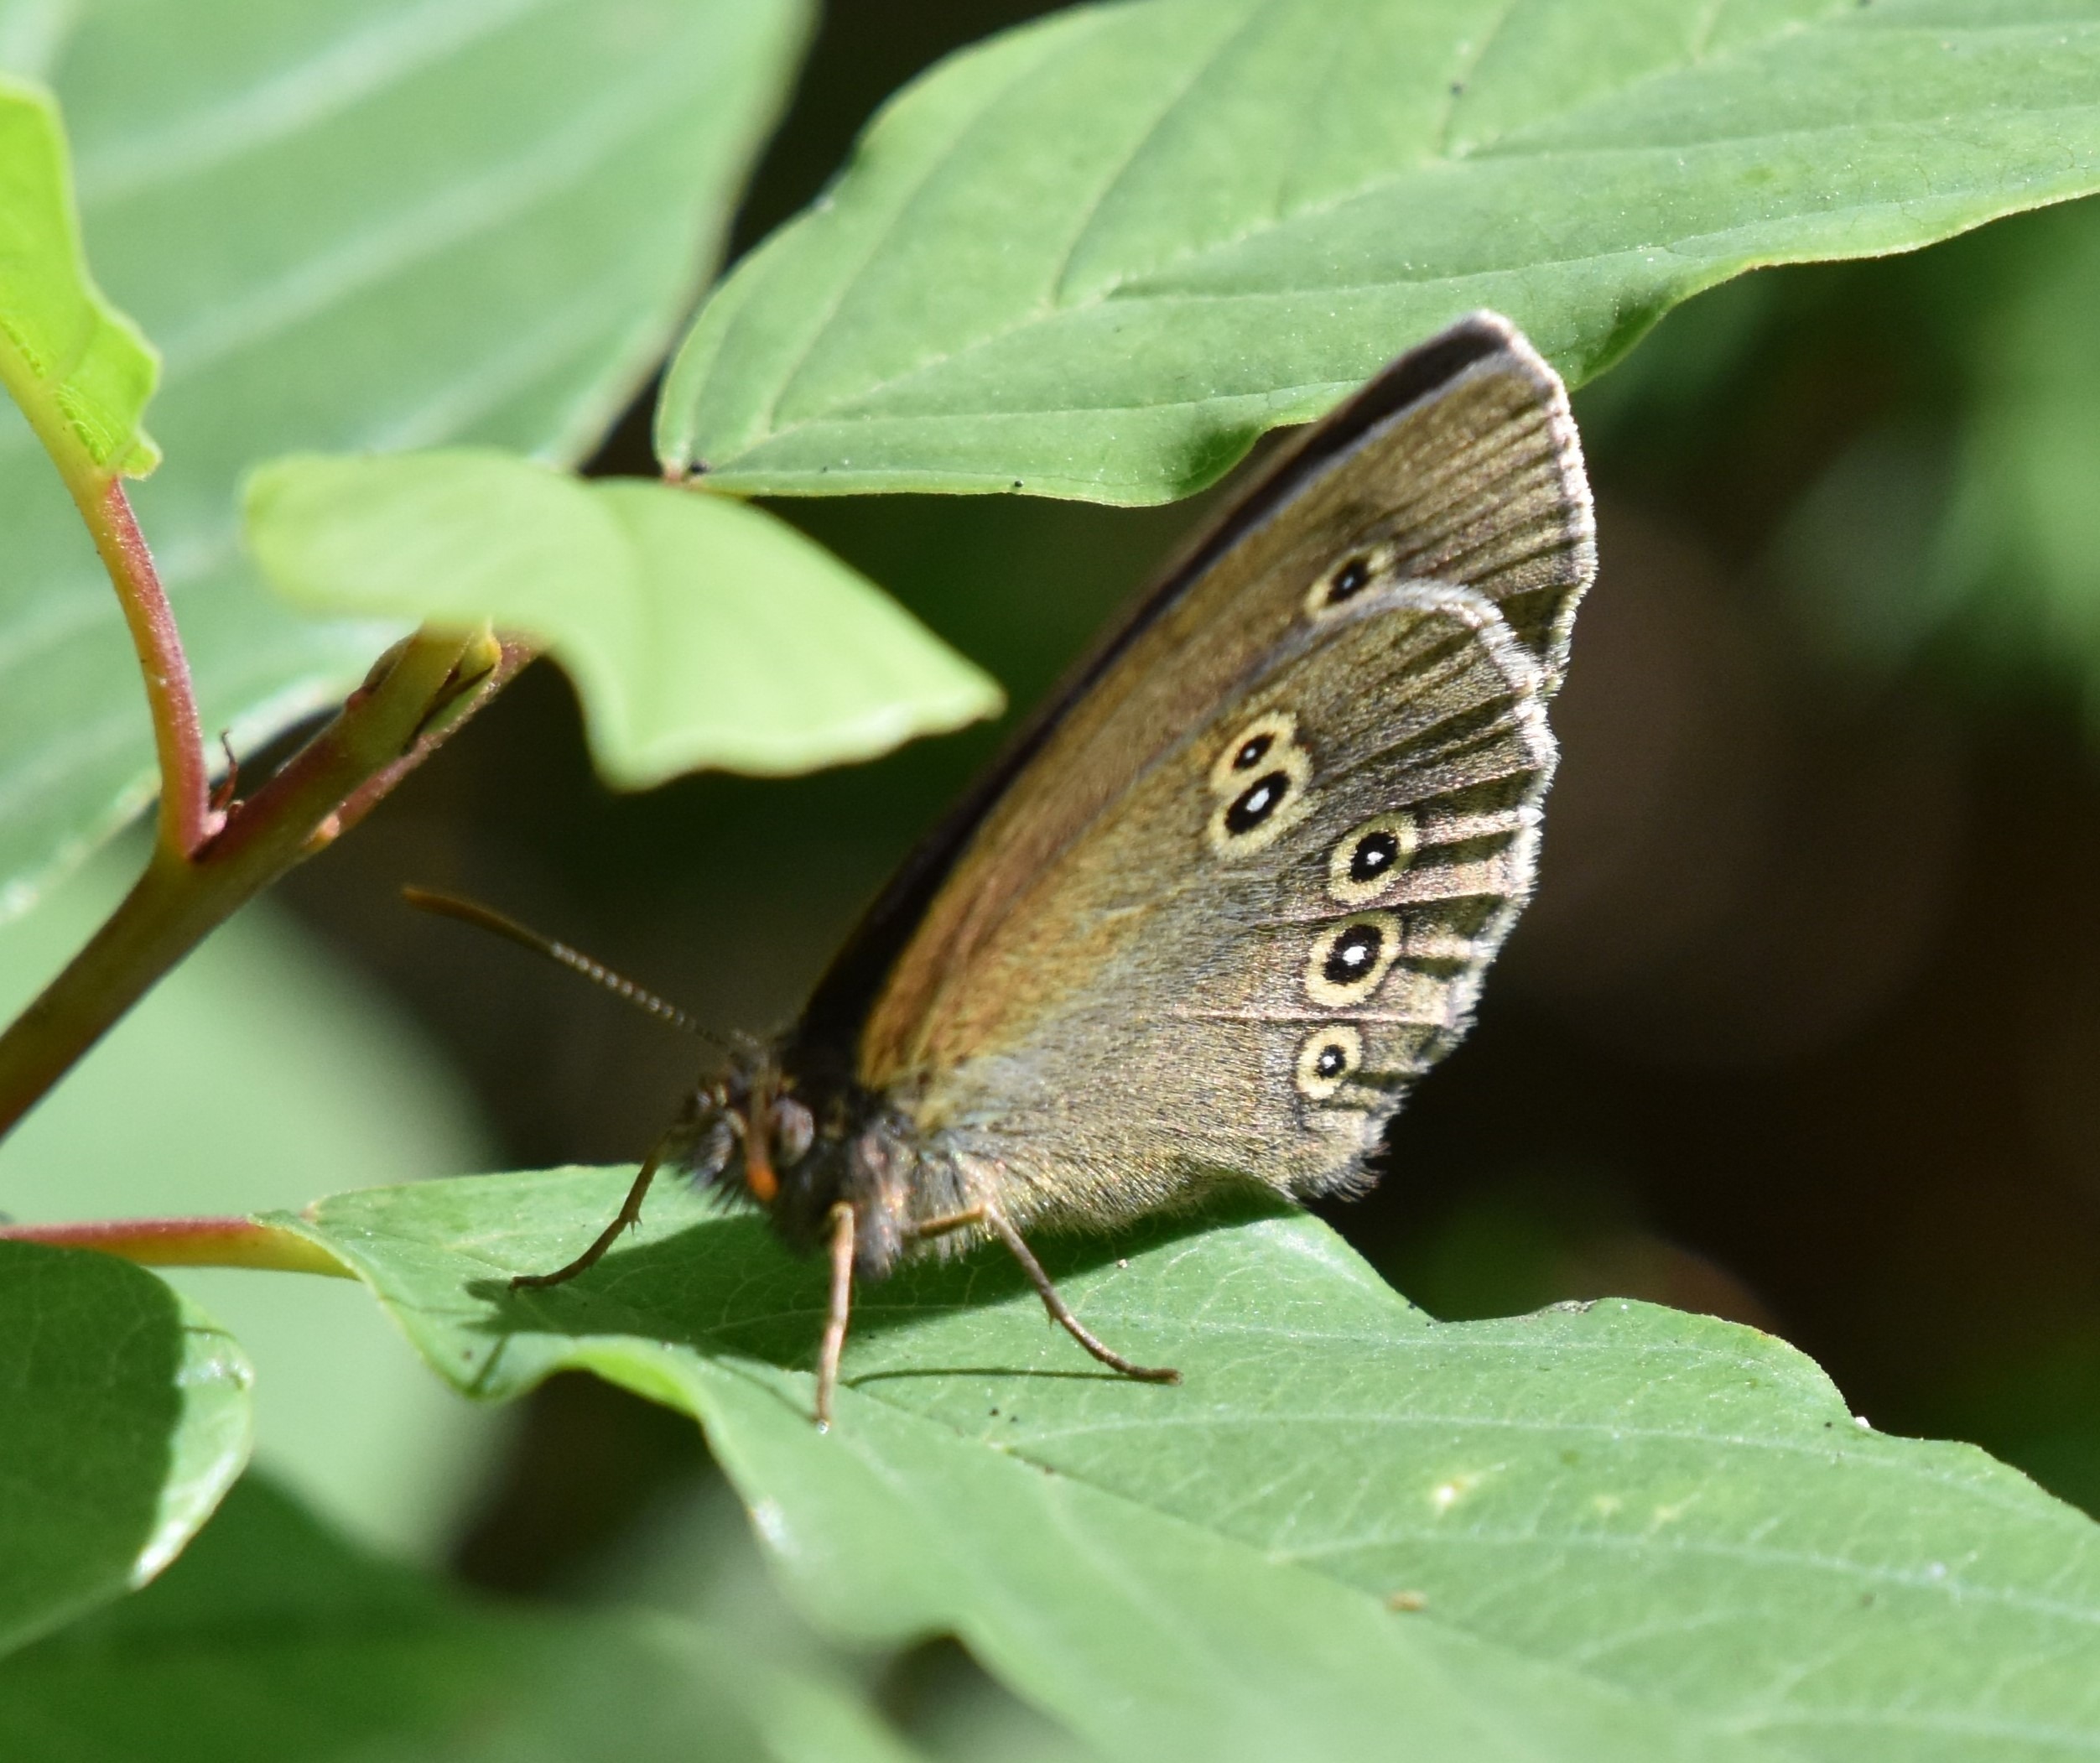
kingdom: Animalia
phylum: Arthropoda
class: Insecta
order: Lepidoptera
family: Nymphalidae
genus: Aphantopus
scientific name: Aphantopus hyperantus
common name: Engrandøje
